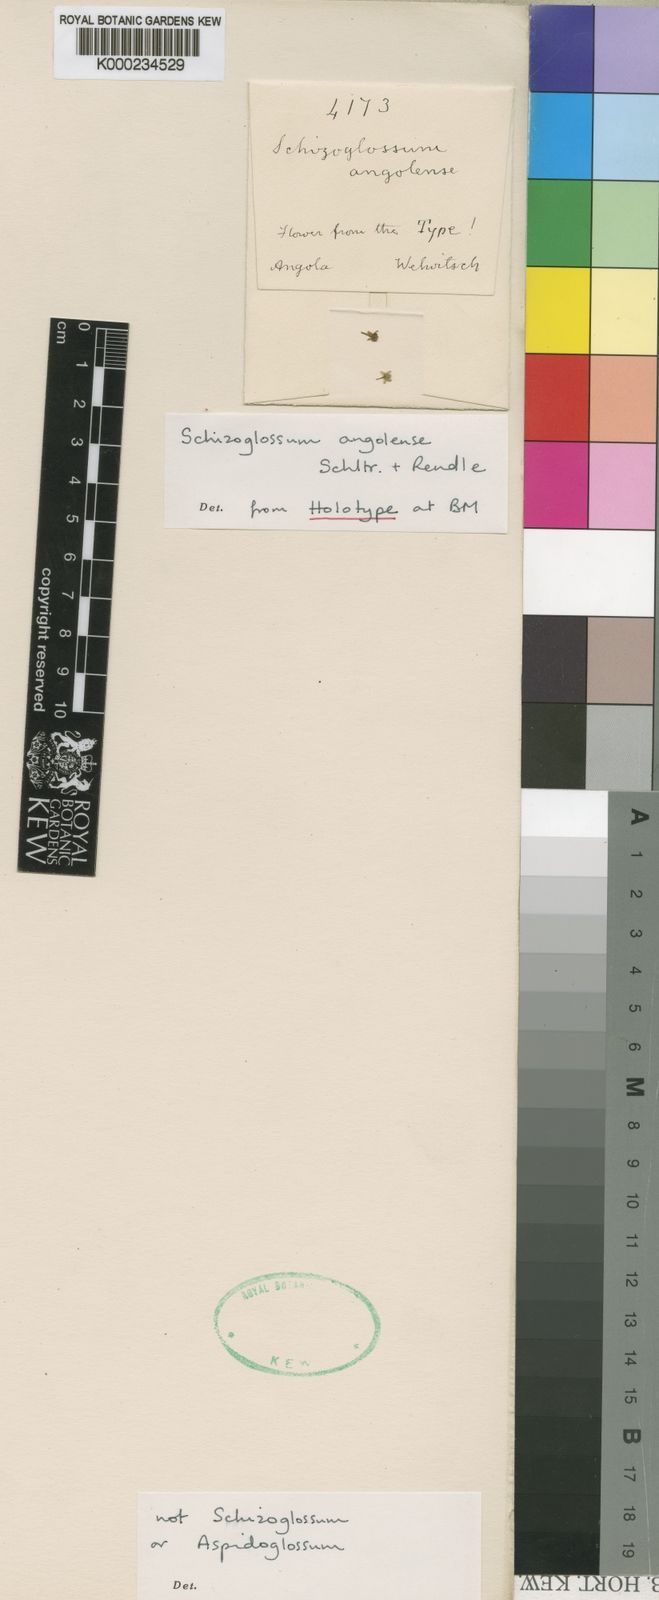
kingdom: Plantae
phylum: Tracheophyta
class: Magnoliopsida
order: Gentianales
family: Apocynaceae
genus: Schizoglossum
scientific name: Schizoglossum angolense
